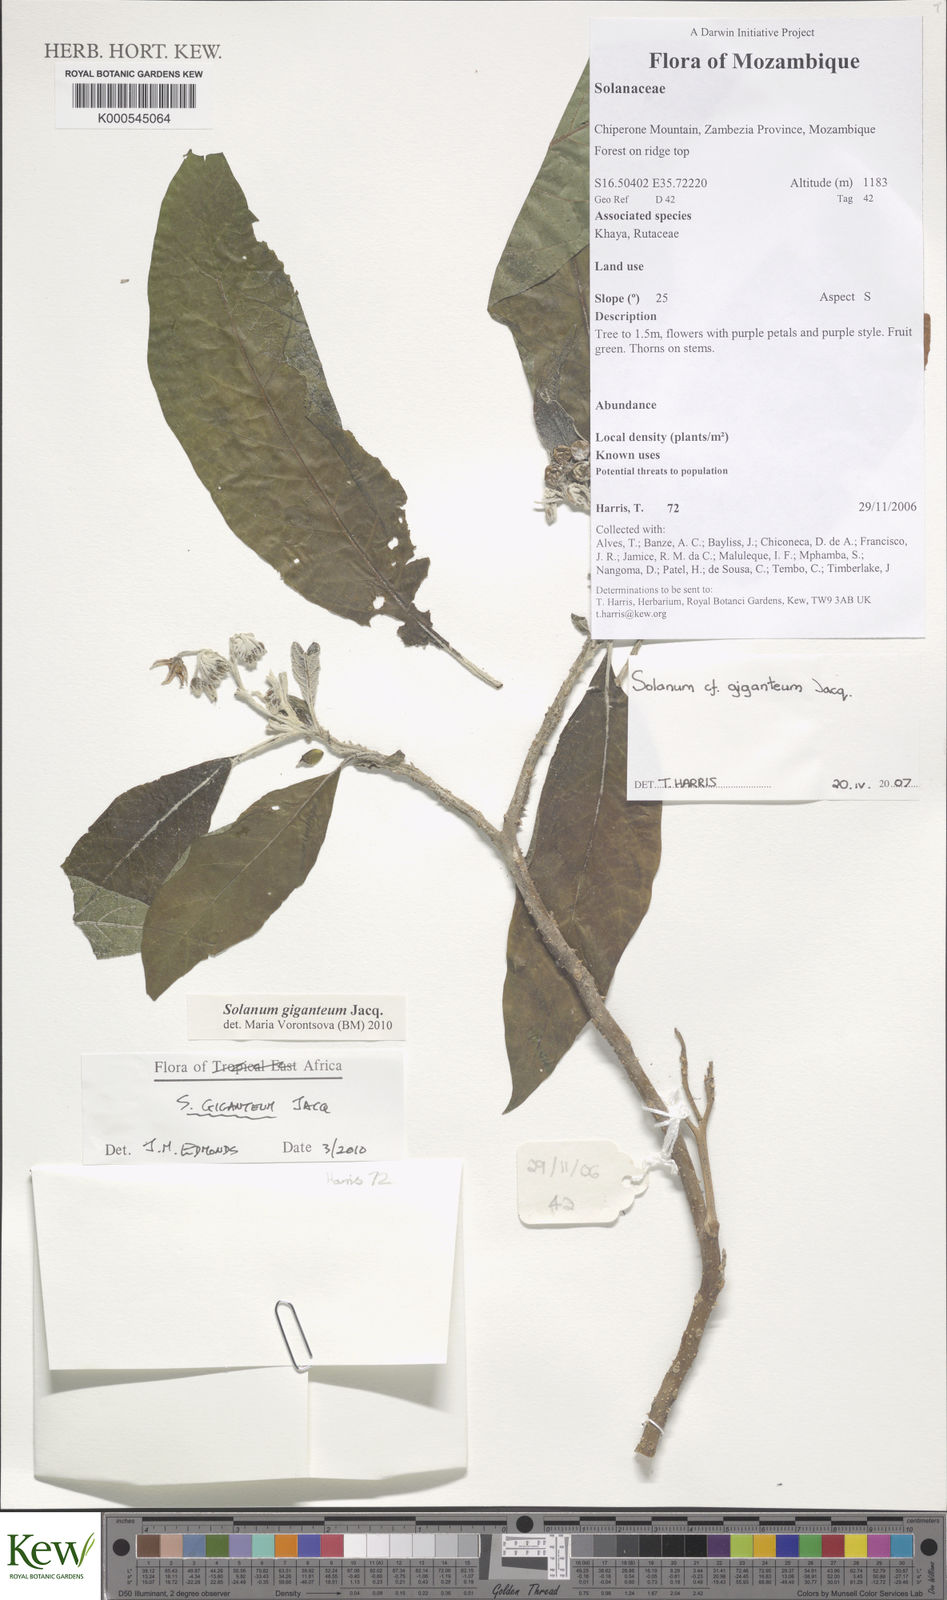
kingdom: Plantae
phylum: Tracheophyta
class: Magnoliopsida
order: Solanales
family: Solanaceae
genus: Solanum
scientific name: Solanum giganteum
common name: Healing-leaf-tree
